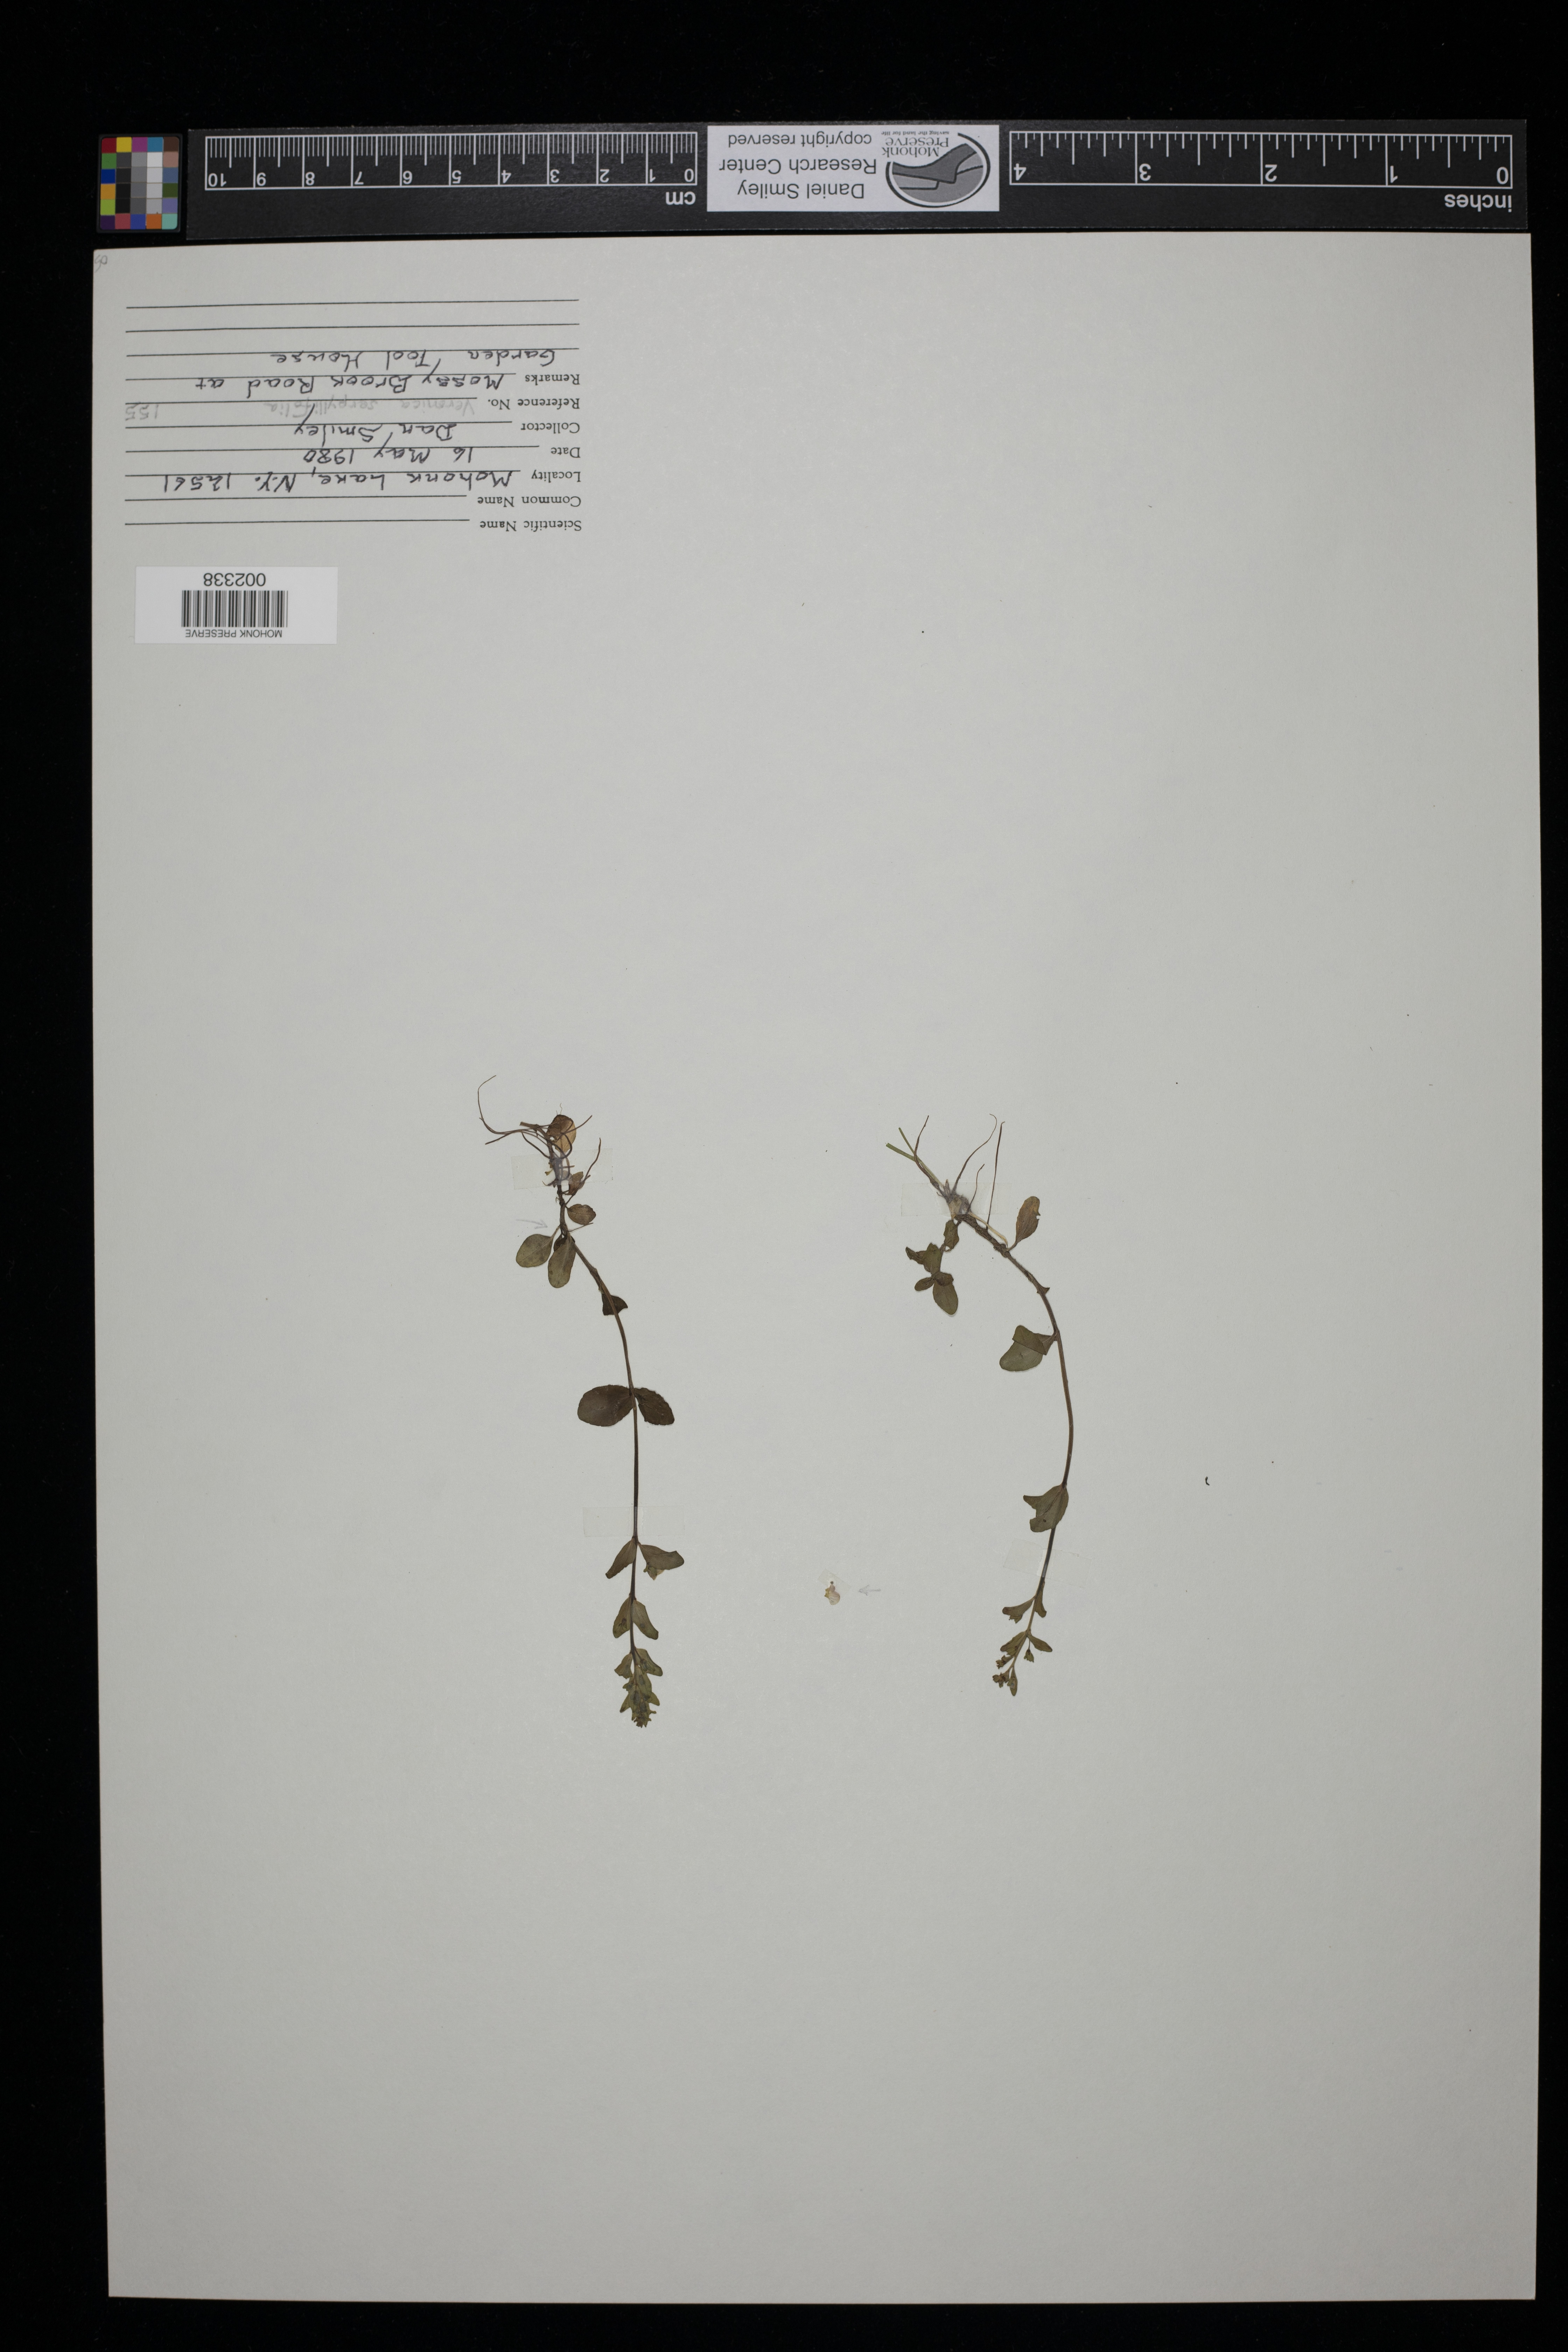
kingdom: Plantae
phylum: Tracheophyta
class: Magnoliopsida
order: Lamiales
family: Plantaginaceae
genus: Veronica
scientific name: Veronica serpyllifolia
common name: Thyme-leaved speedwell
